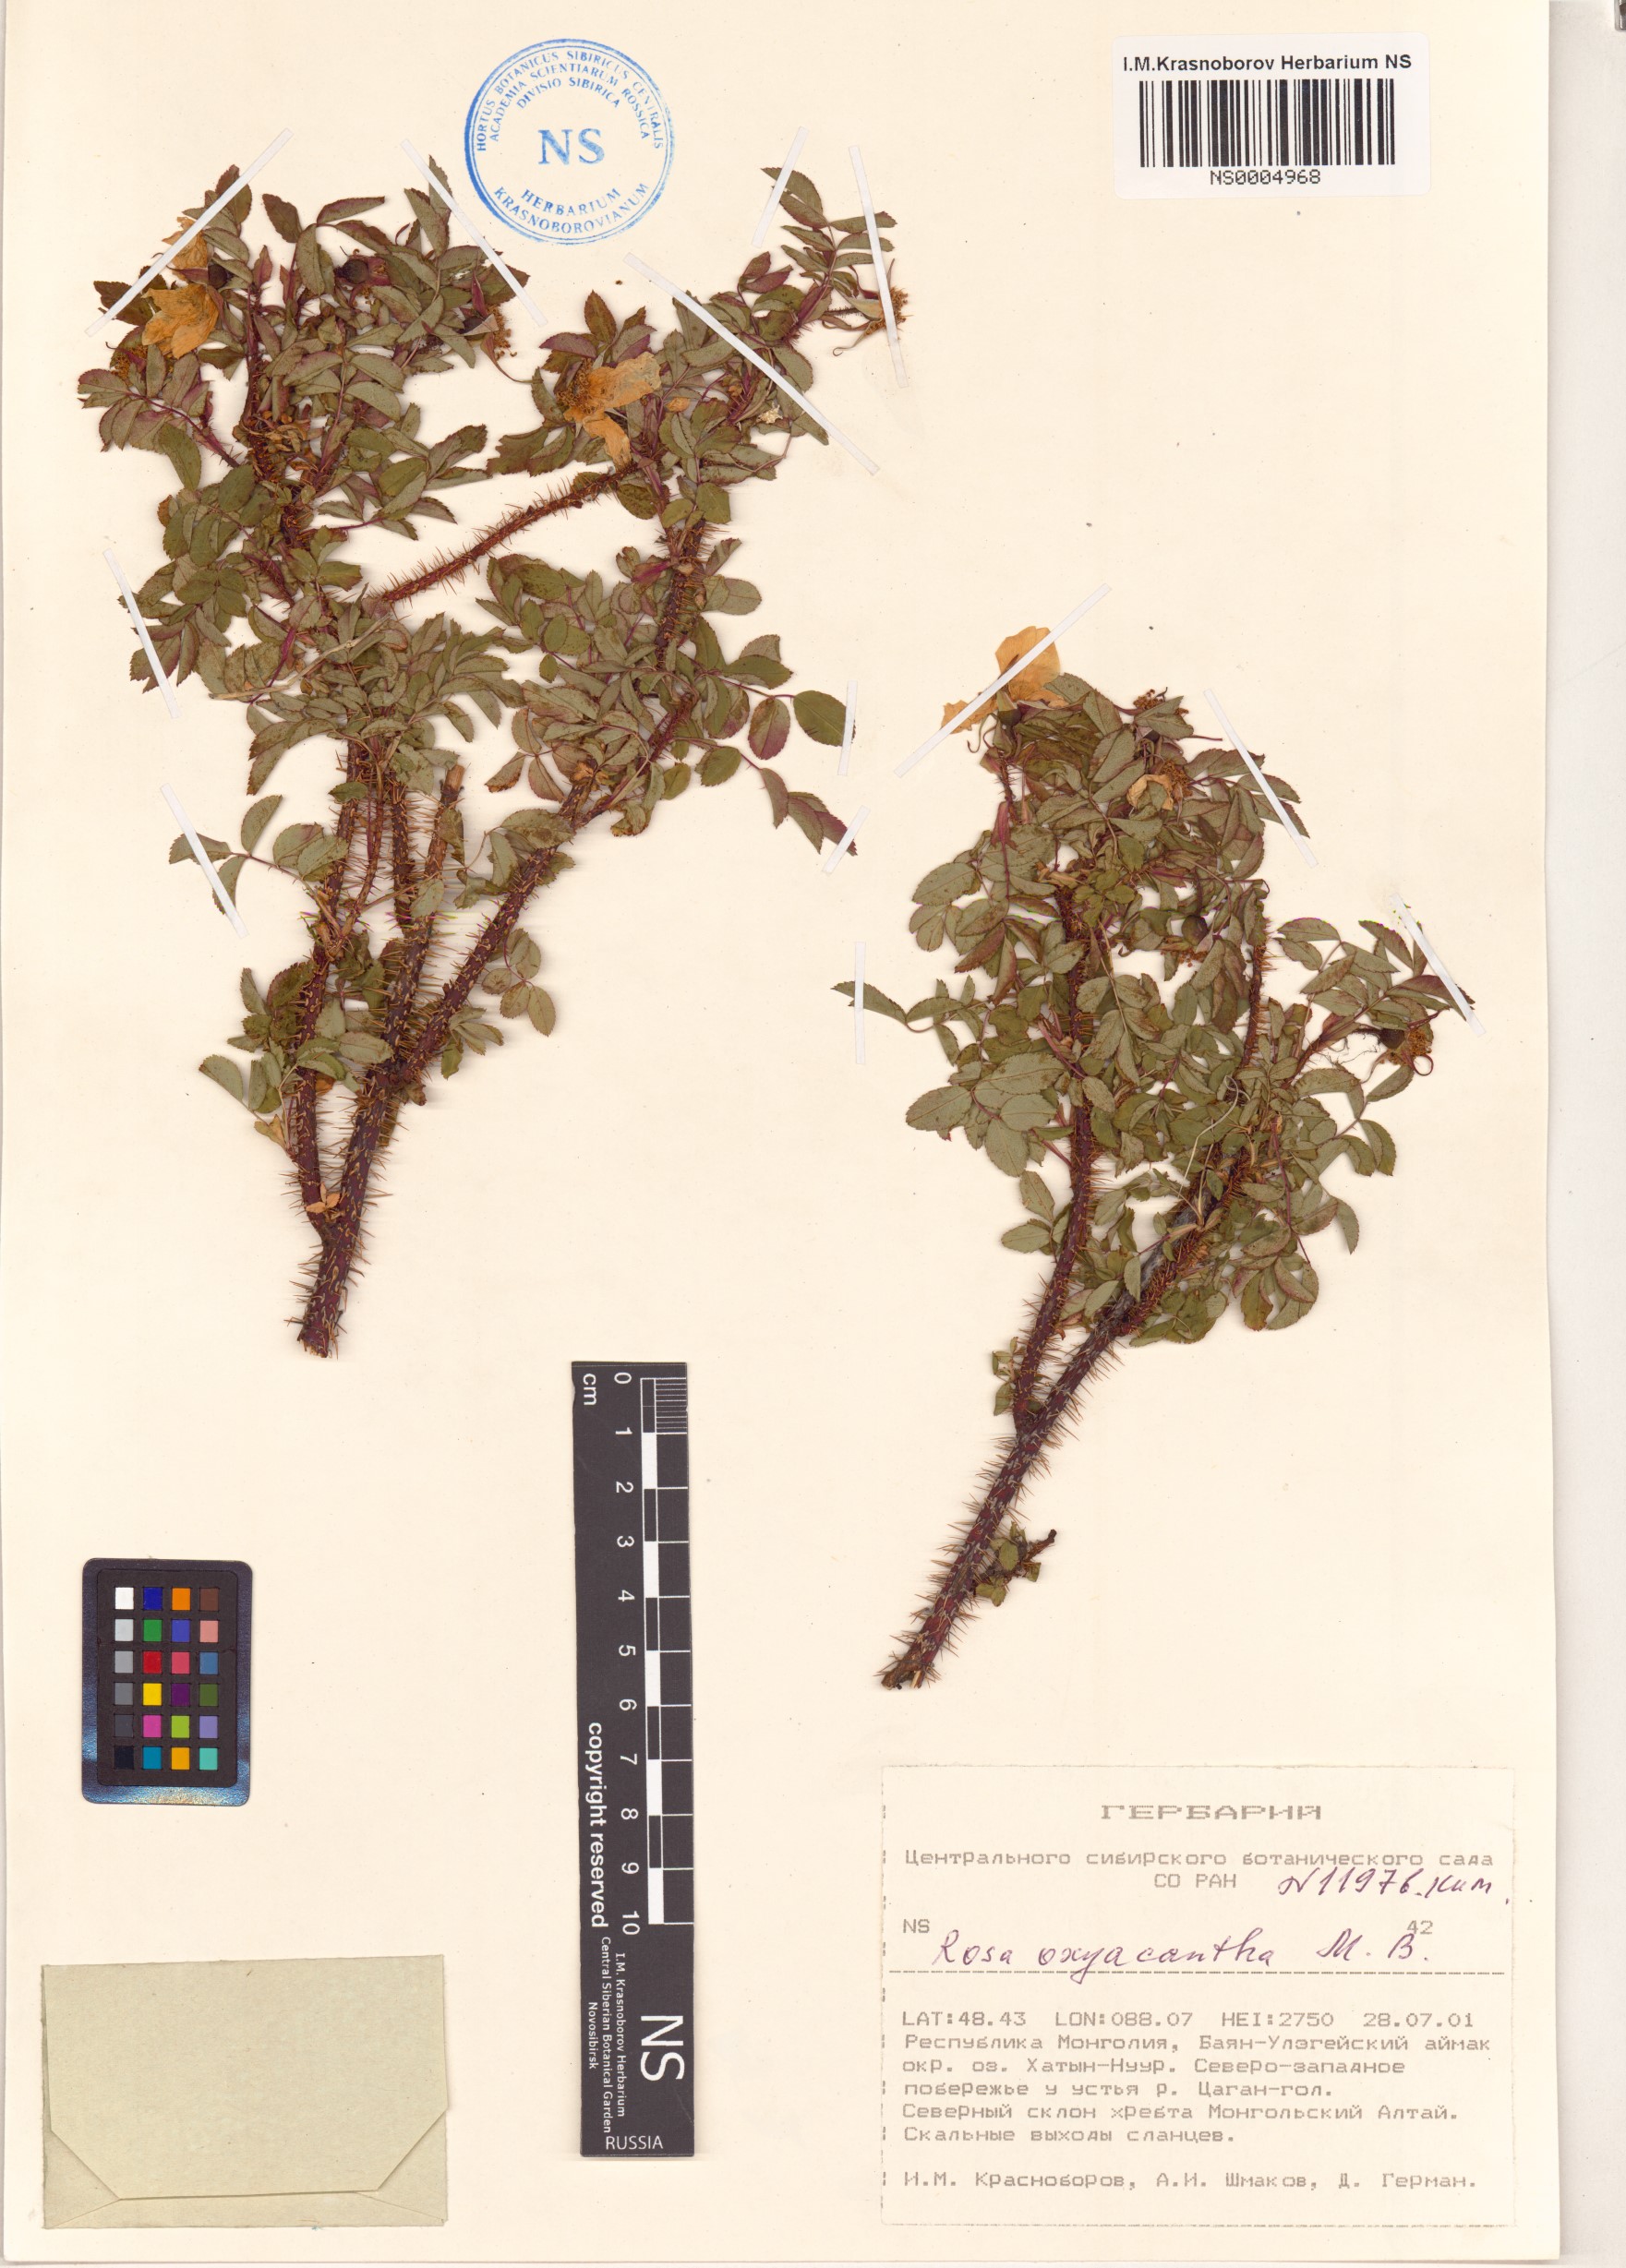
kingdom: Plantae
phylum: Tracheophyta
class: Magnoliopsida
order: Rosales
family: Rosaceae
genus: Rosa
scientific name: Rosa oxyacantha
